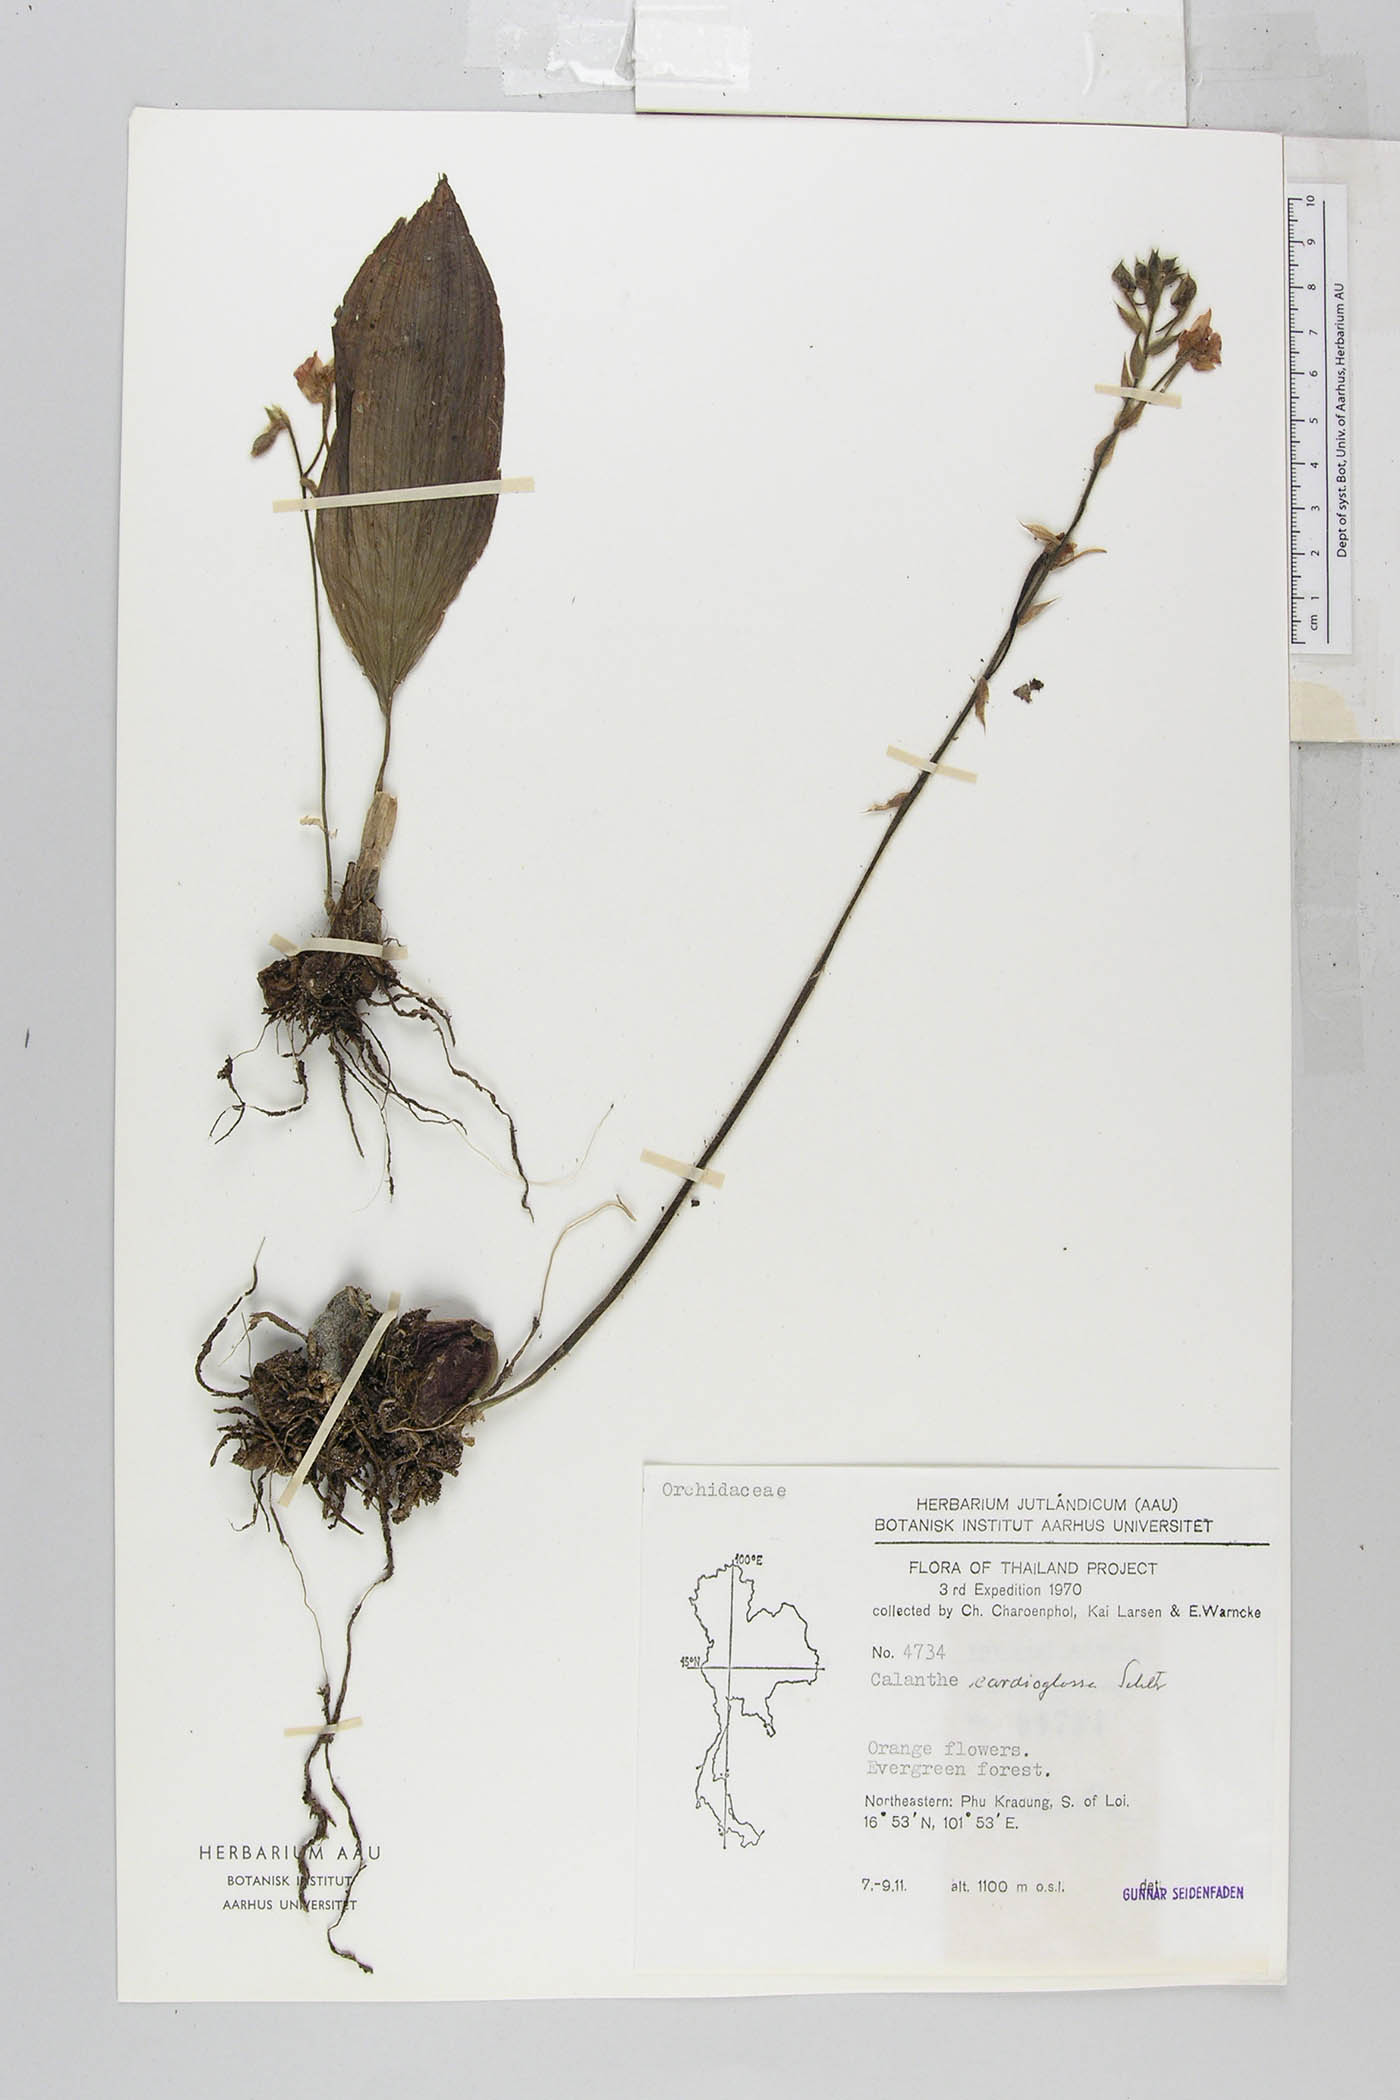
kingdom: Plantae
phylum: Tracheophyta
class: Liliopsida
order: Asparagales
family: Orchidaceae
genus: Calanthe
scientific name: Calanthe cardioglossa
